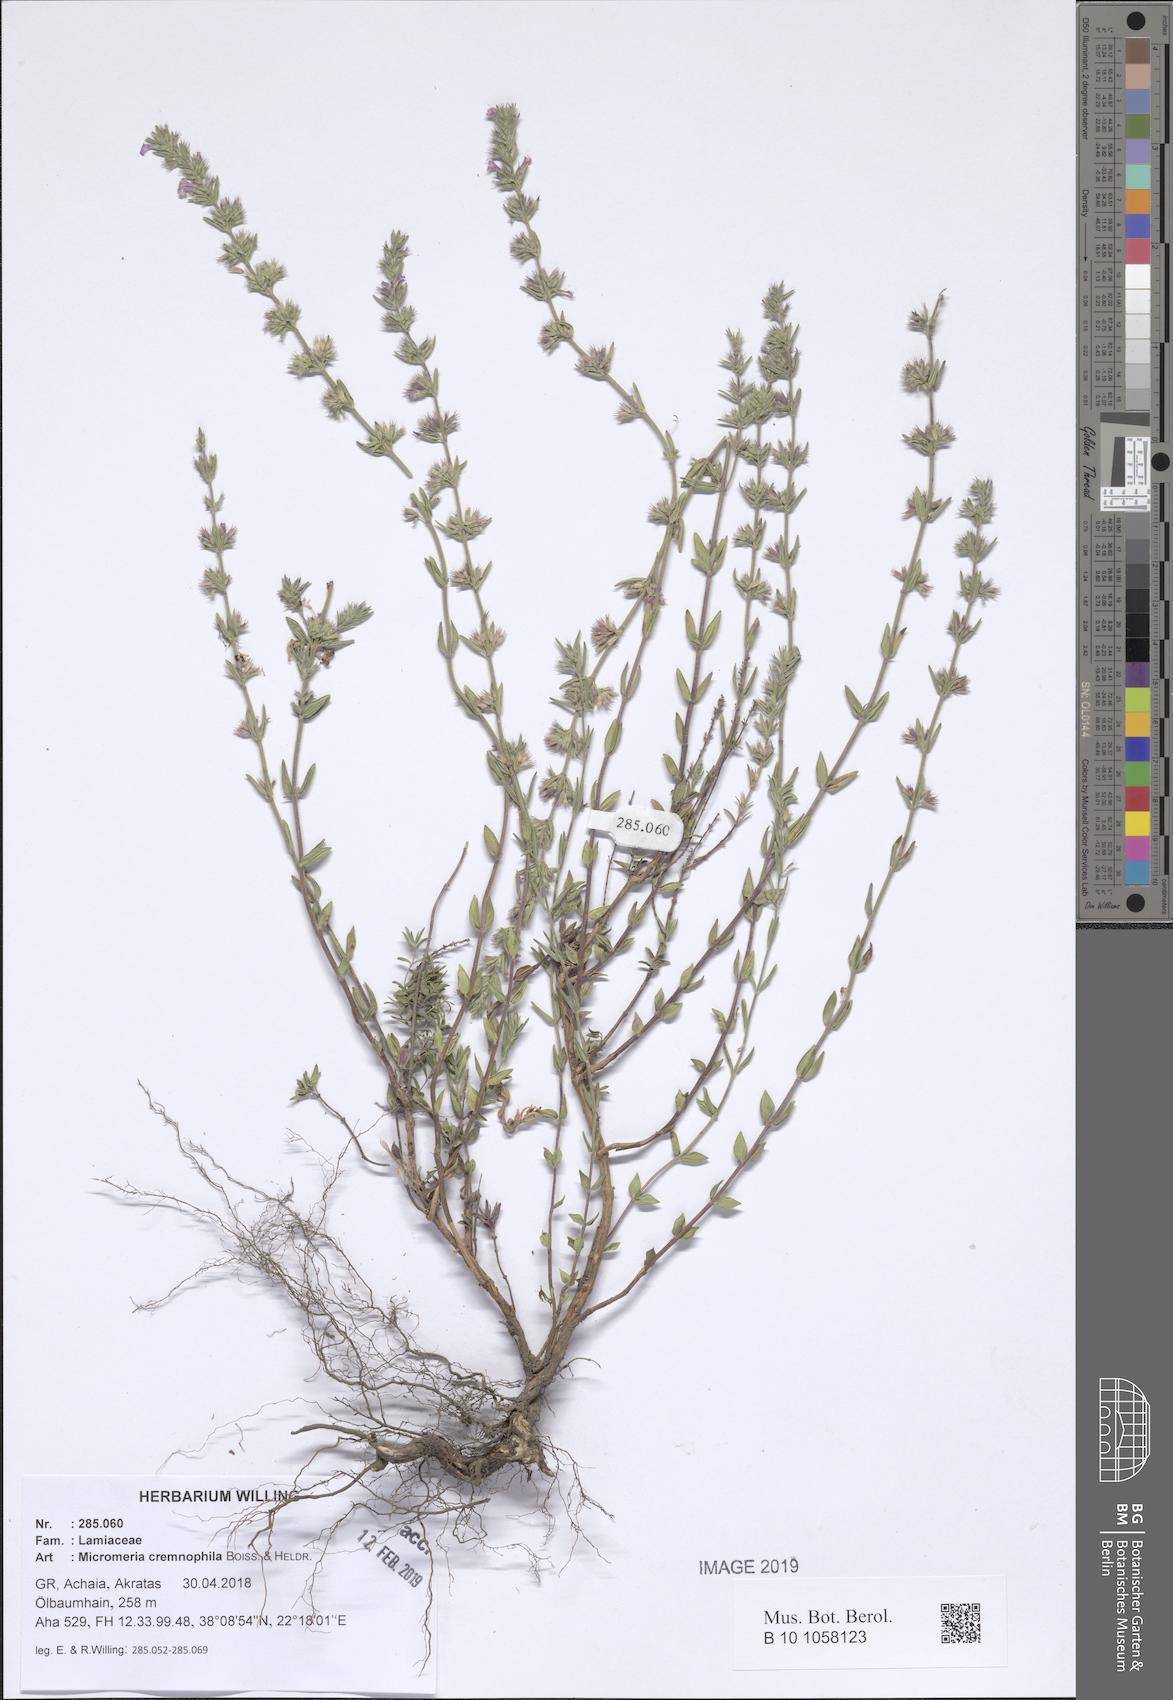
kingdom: Plantae
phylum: Tracheophyta
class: Magnoliopsida
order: Lamiales
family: Lamiaceae
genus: Micromeria
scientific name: Micromeria graeca
